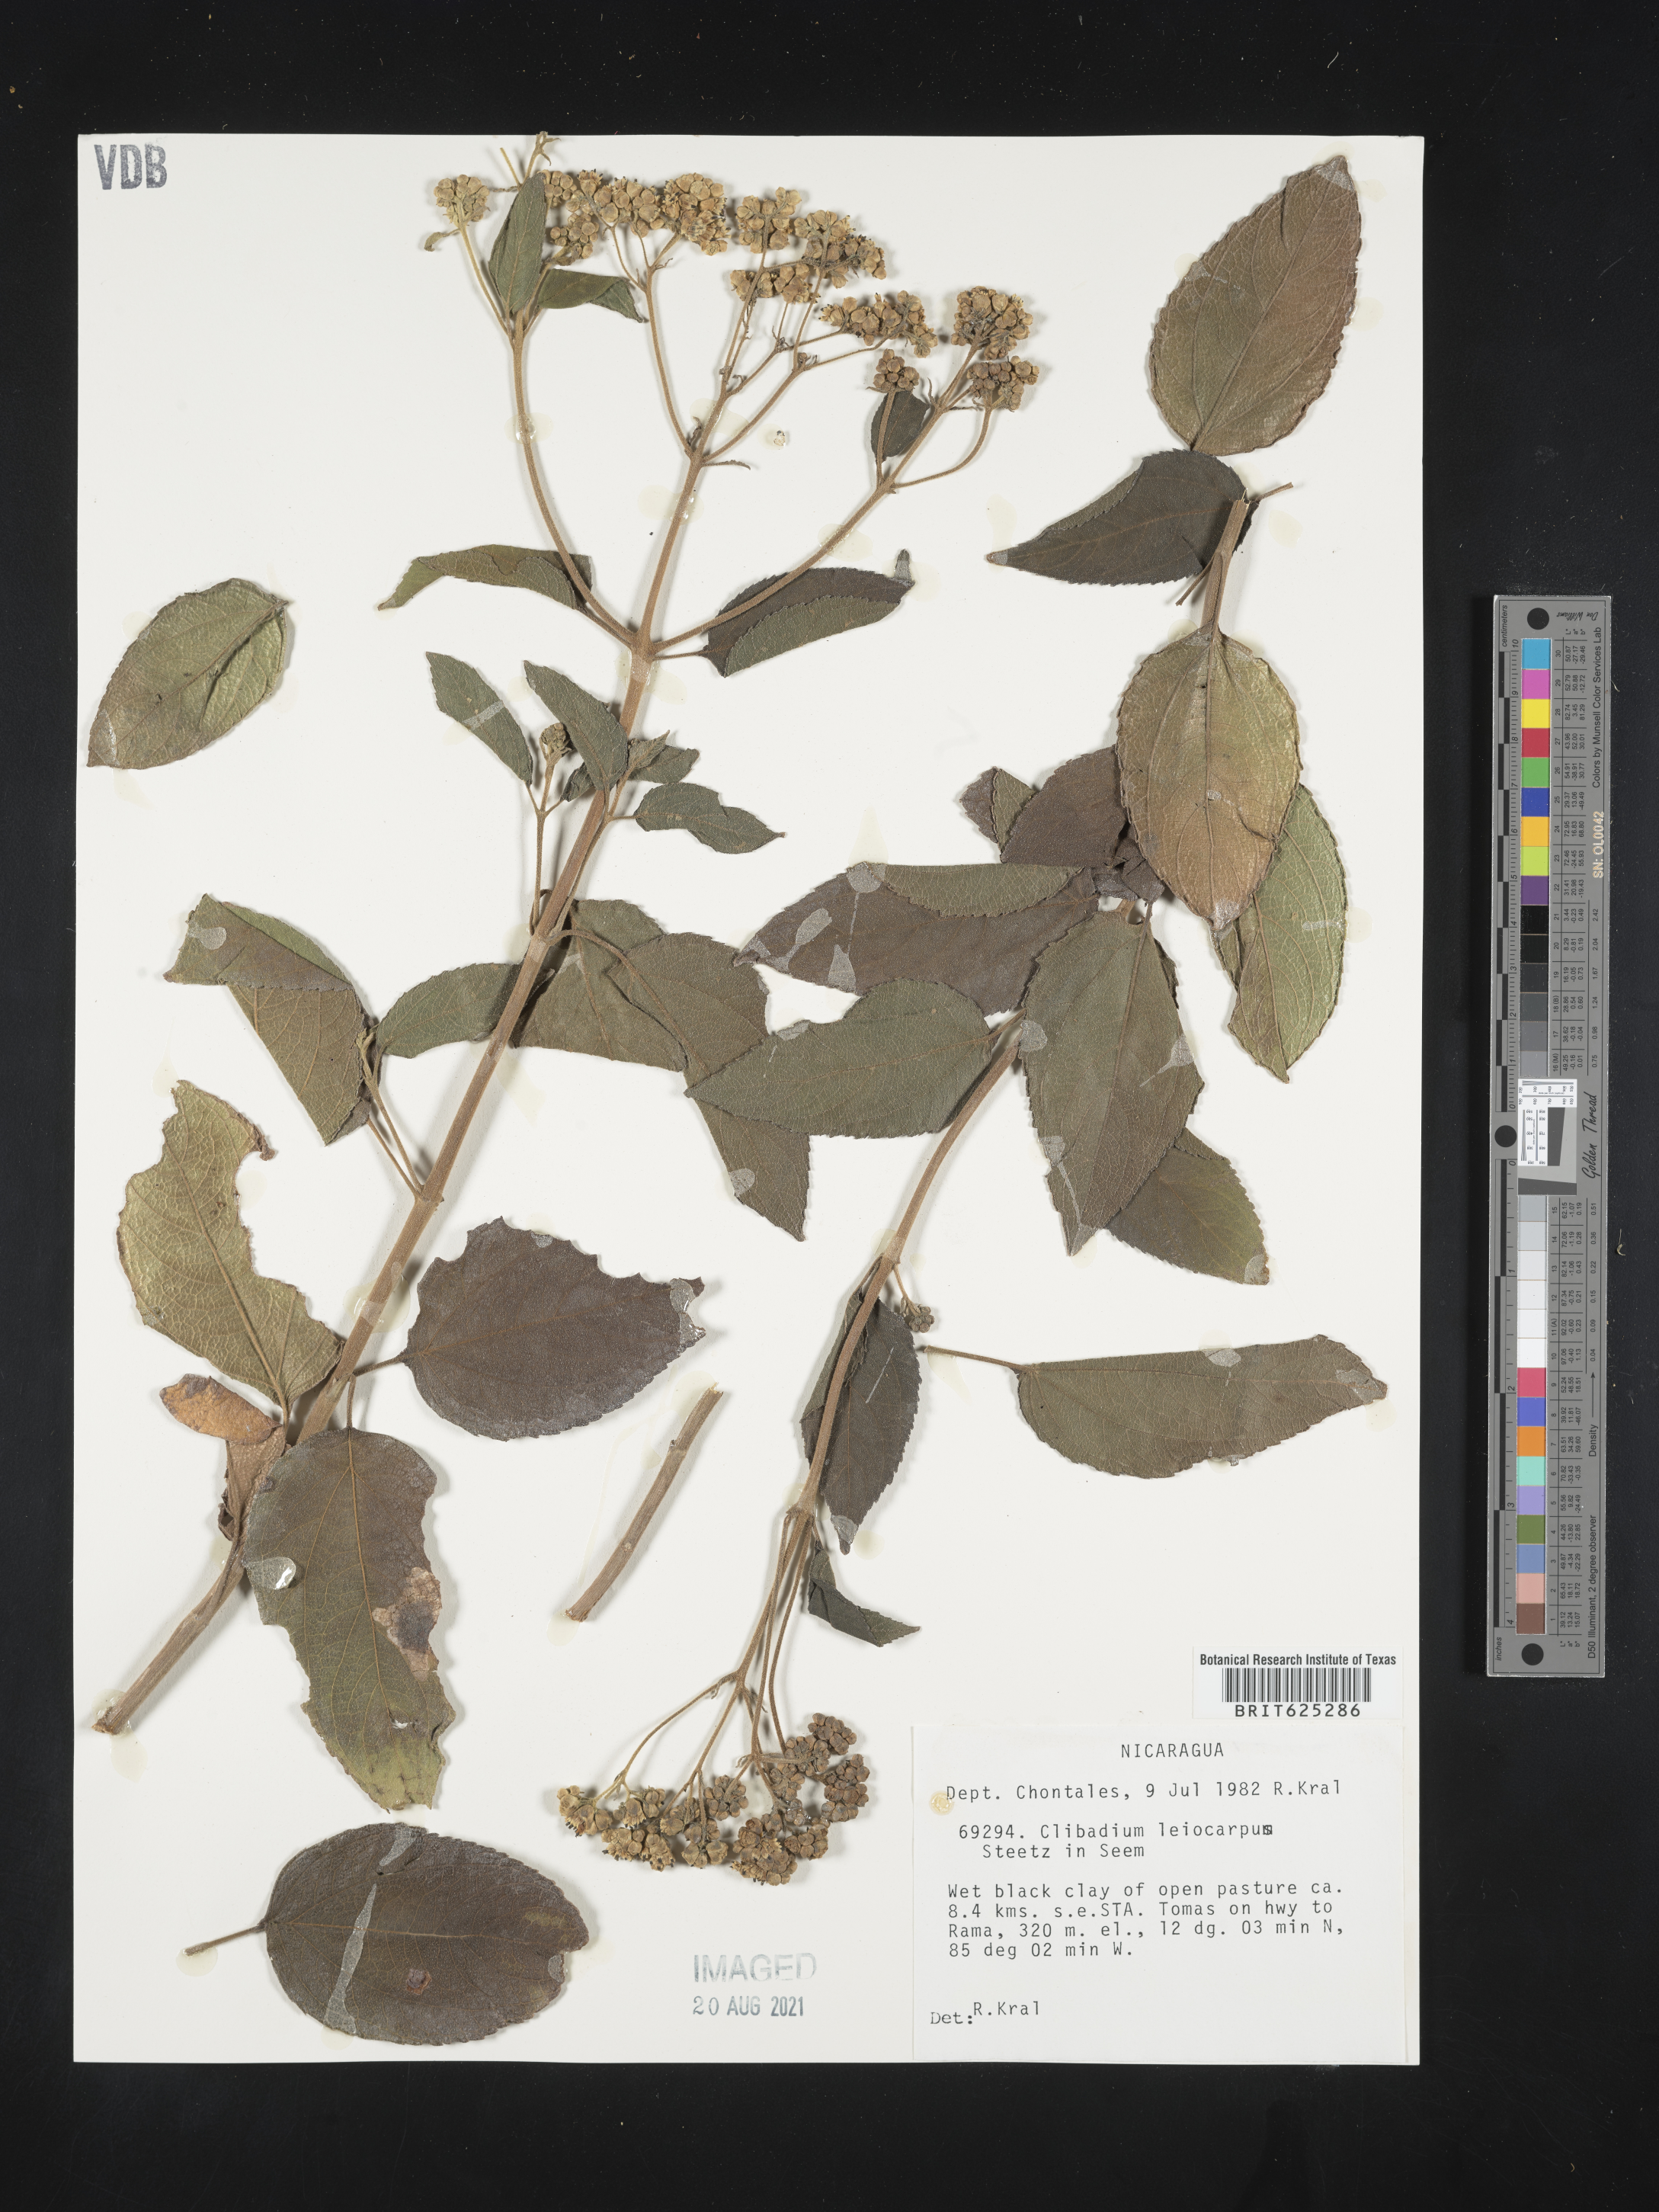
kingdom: Plantae
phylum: Tracheophyta
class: Magnoliopsida
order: Asterales
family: Asteraceae
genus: Clibadium
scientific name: Clibadium leiocarpum
